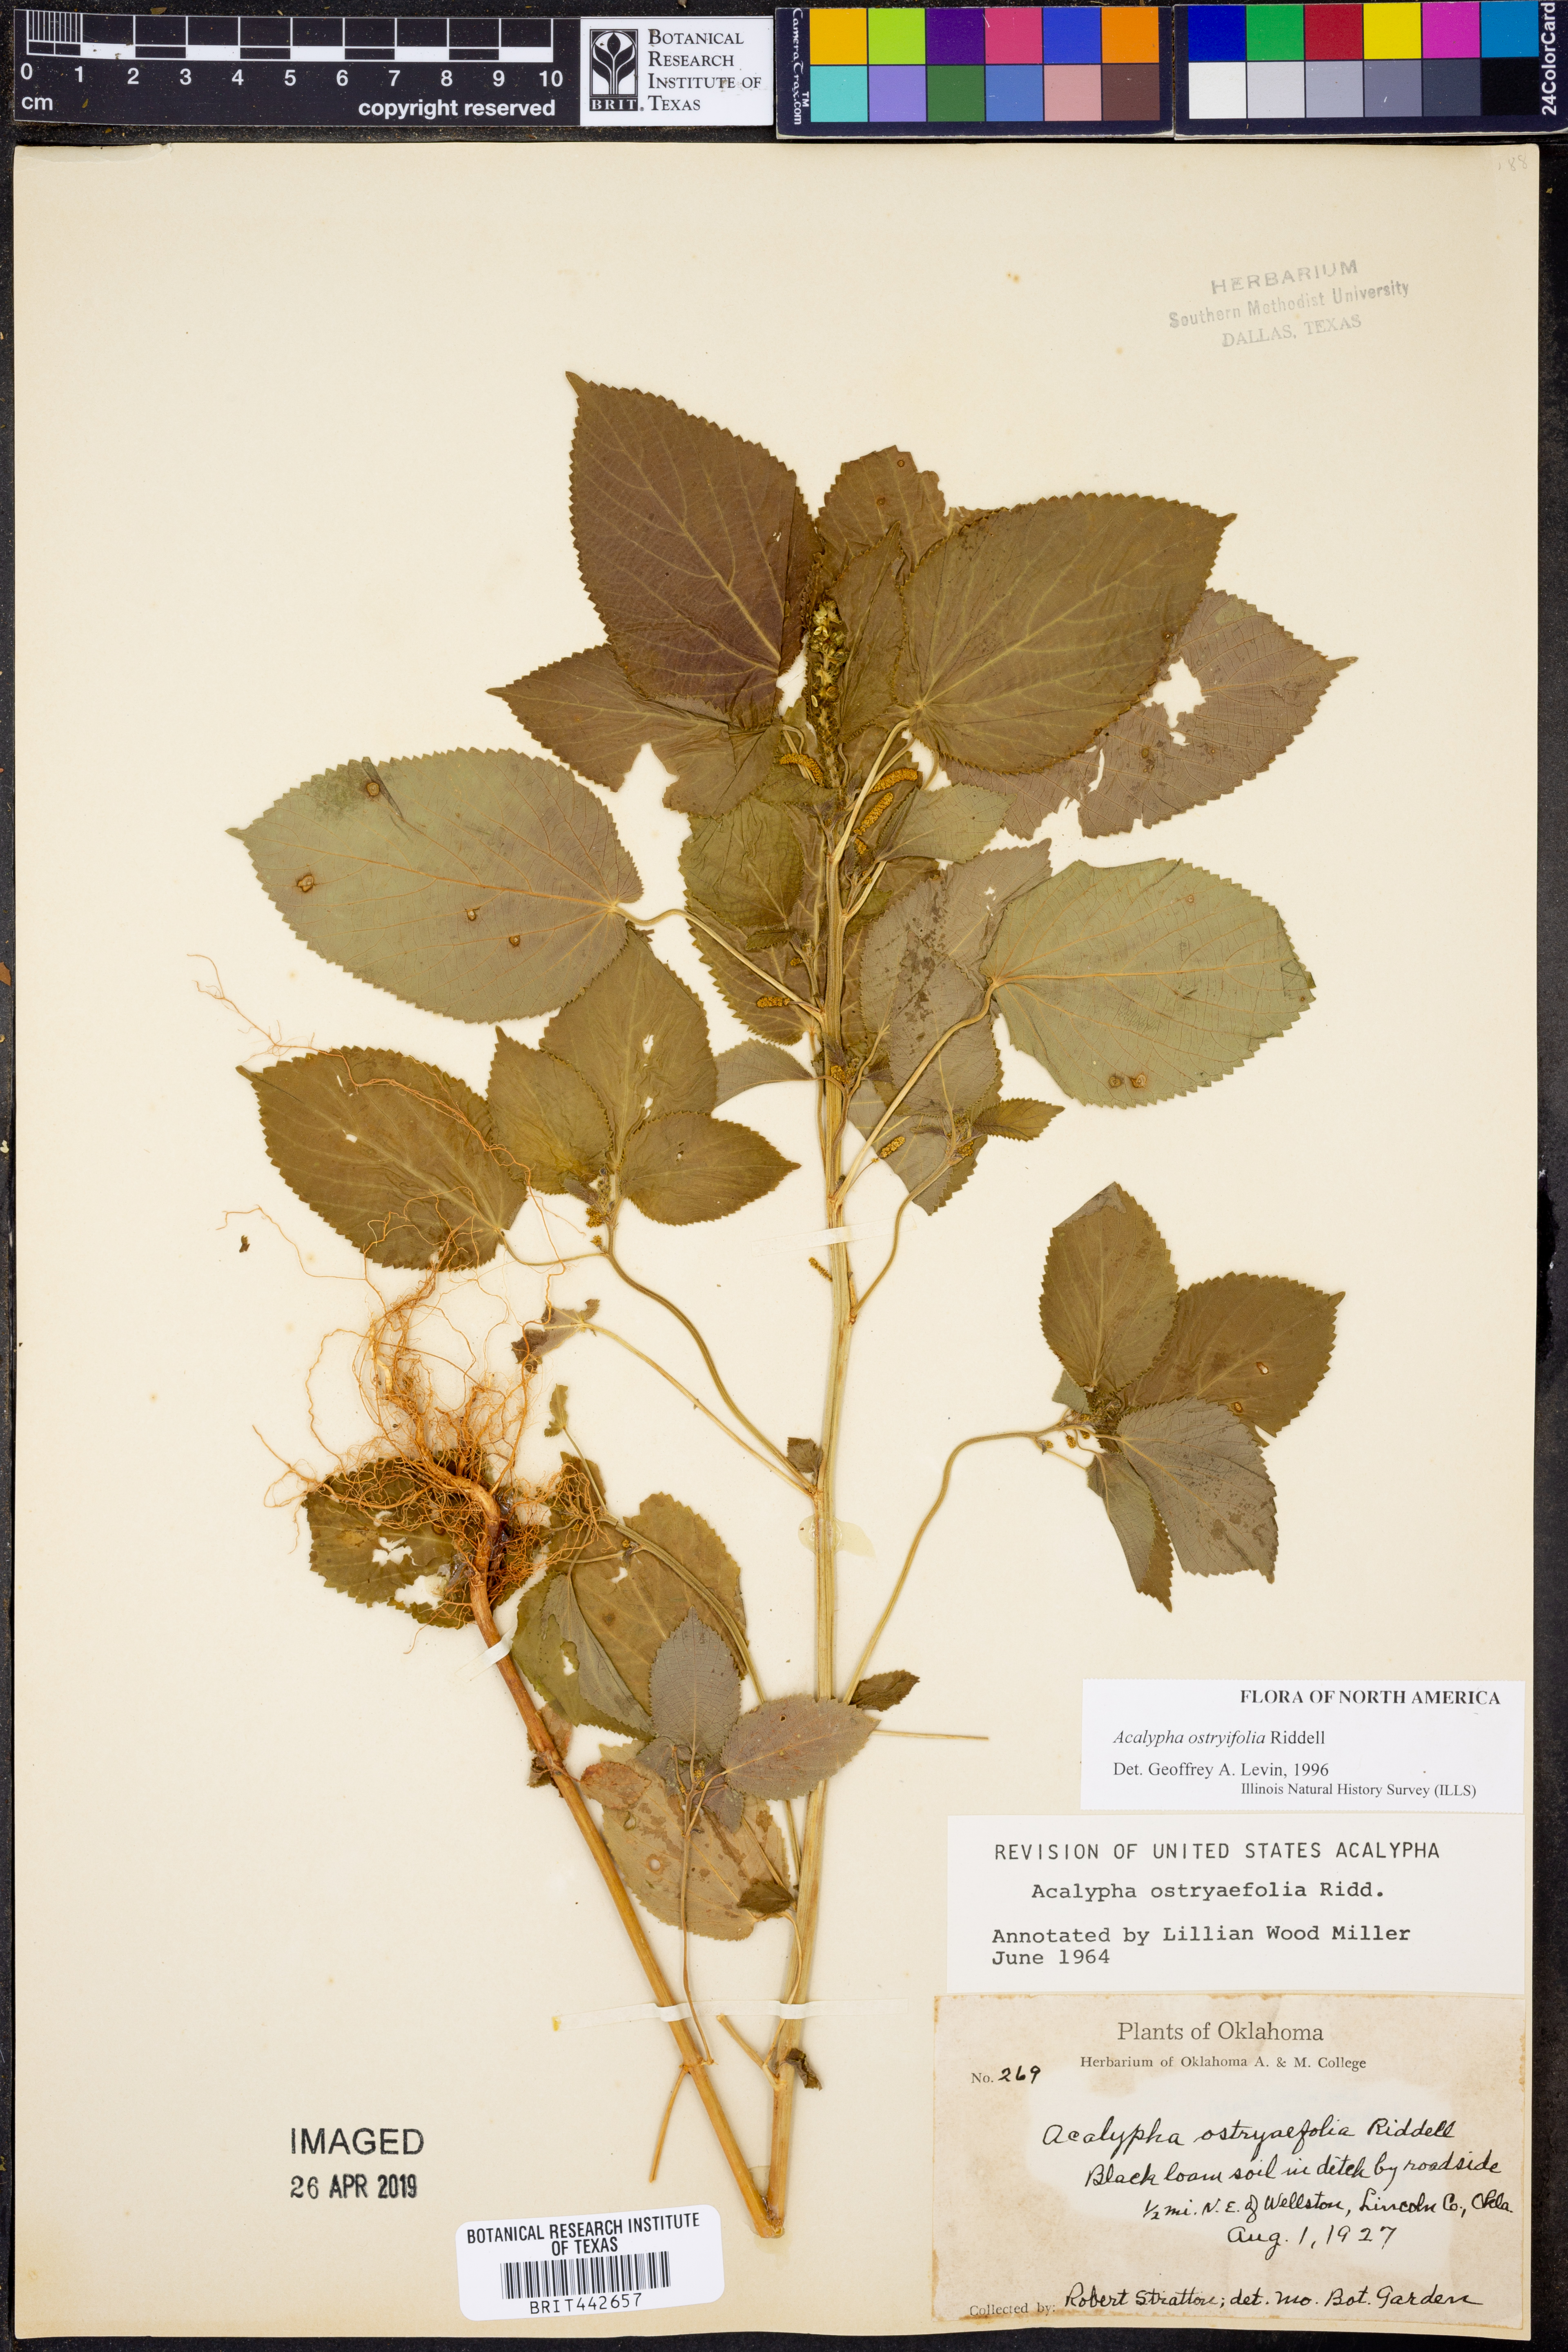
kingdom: Plantae
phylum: Tracheophyta
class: Magnoliopsida
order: Malpighiales
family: Euphorbiaceae
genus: Acalypha
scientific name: Acalypha persimilis
